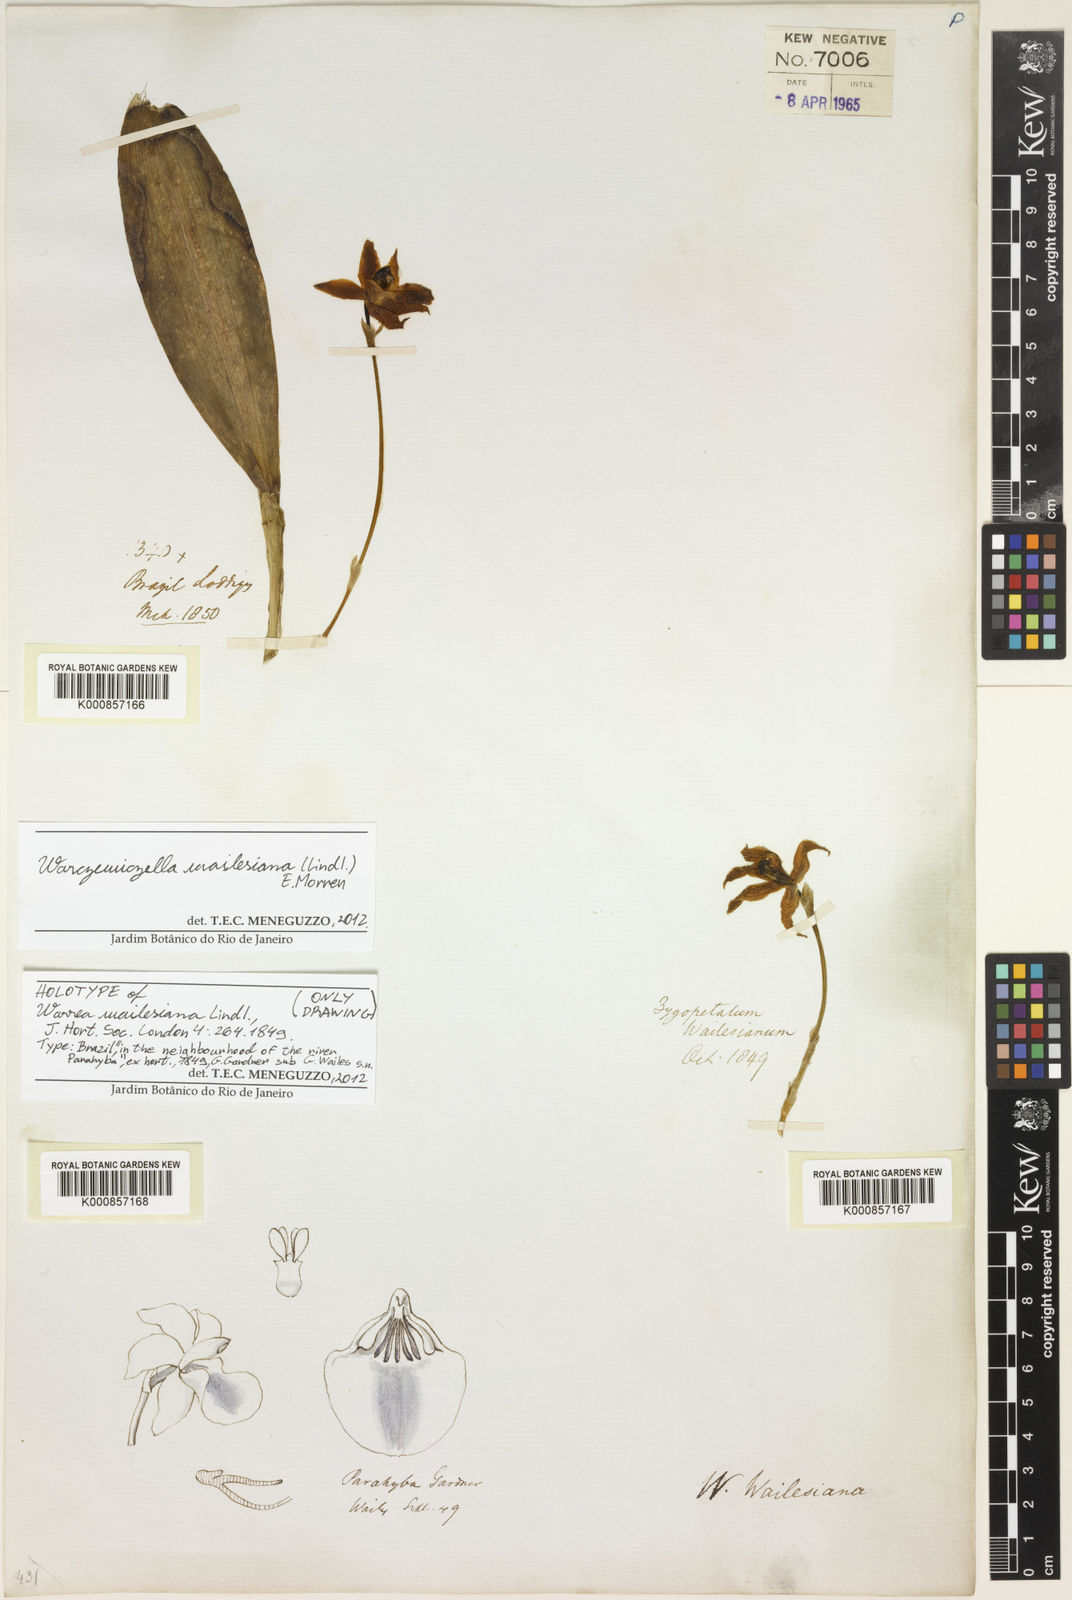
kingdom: Plantae
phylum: Tracheophyta
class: Liliopsida
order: Asparagales
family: Orchidaceae
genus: Warczewiczella
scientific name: Warczewiczella wailesiana
